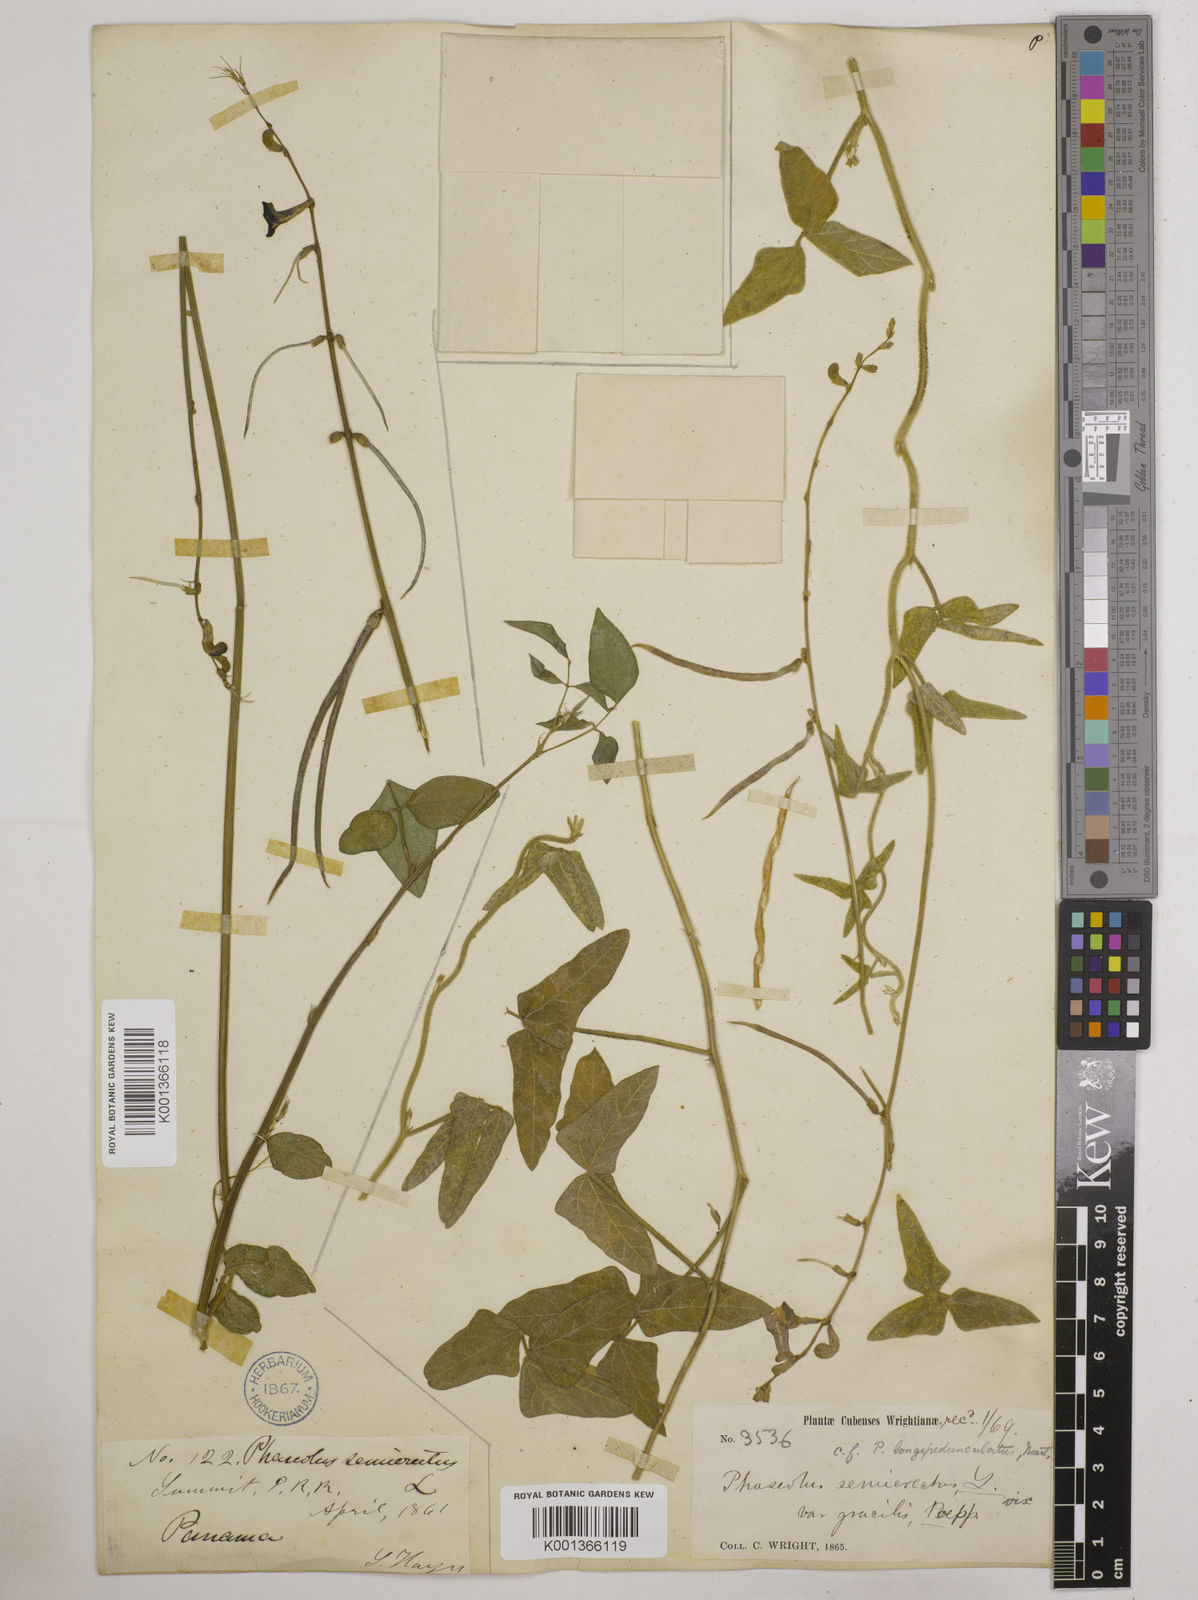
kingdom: Plantae
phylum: Tracheophyta
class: Magnoliopsida
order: Fabales
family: Fabaceae
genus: Macroptilium
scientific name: Macroptilium lathyroides
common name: Wild bushbean
